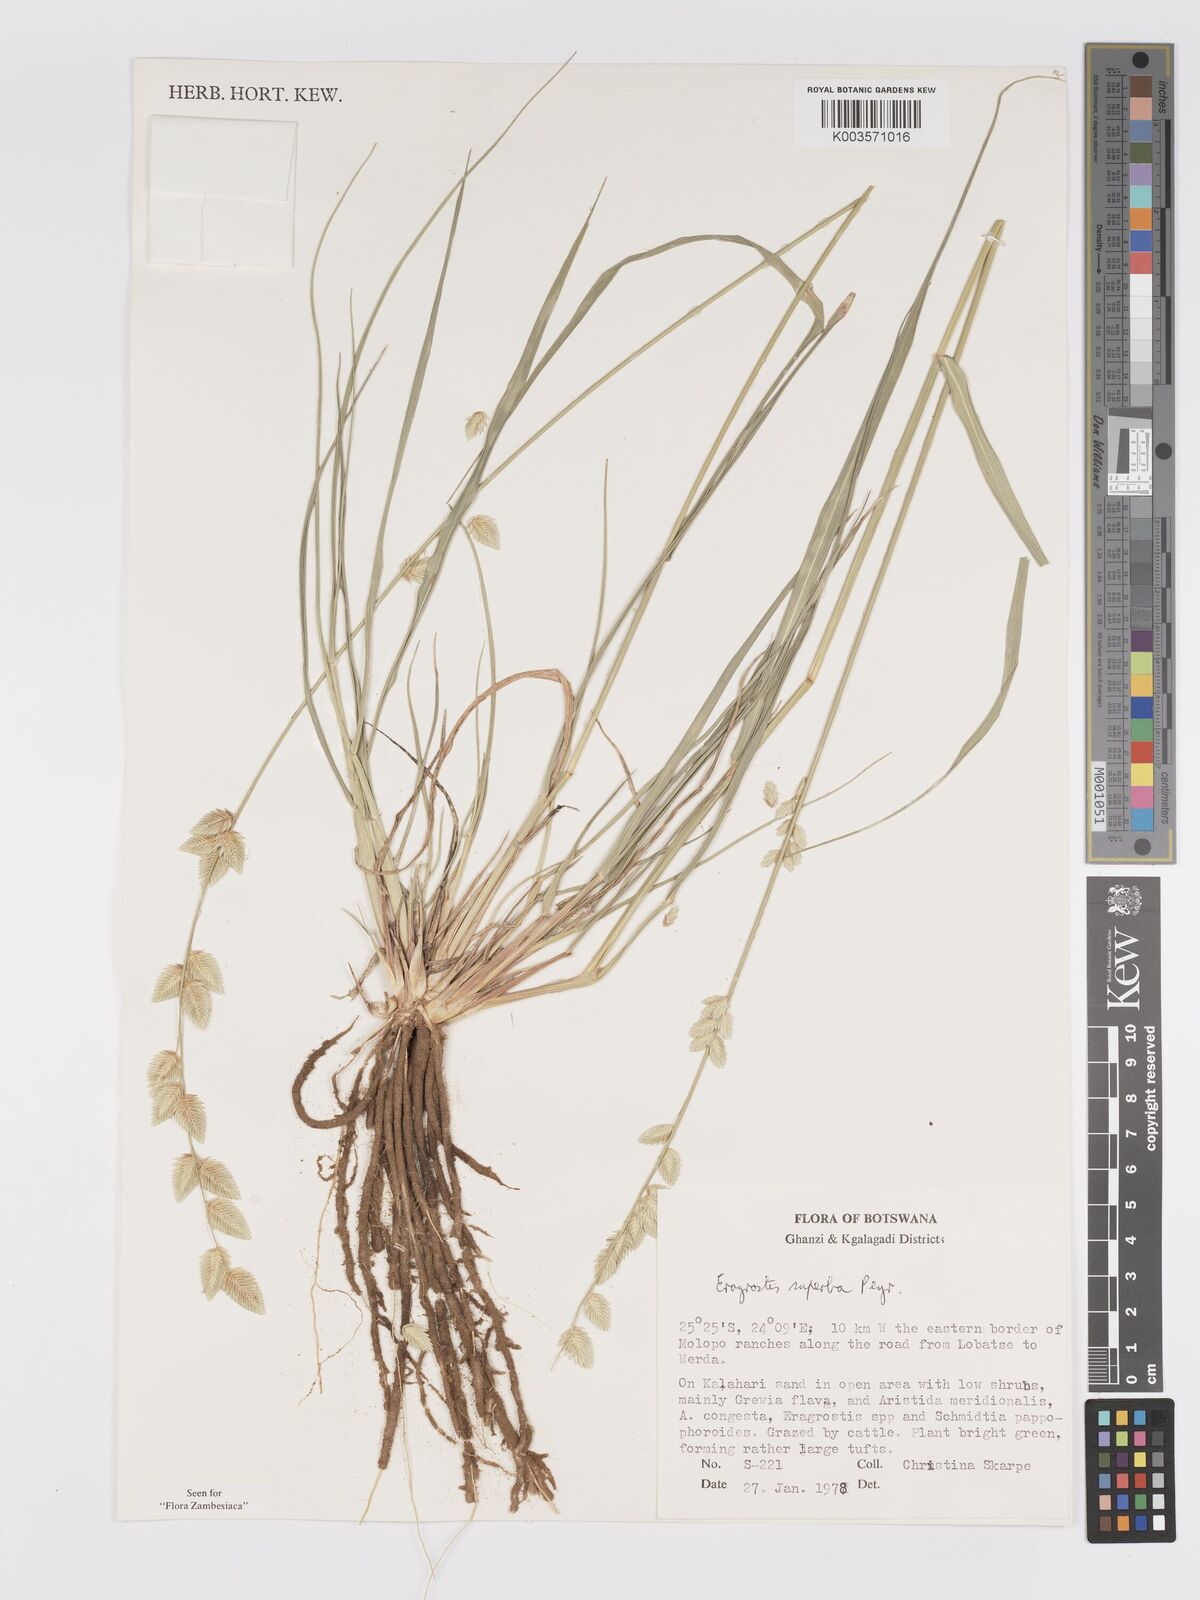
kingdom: Plantae
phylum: Tracheophyta
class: Liliopsida
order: Poales
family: Poaceae
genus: Eragrostis
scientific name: Eragrostis superba
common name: Wilman lovegrass
